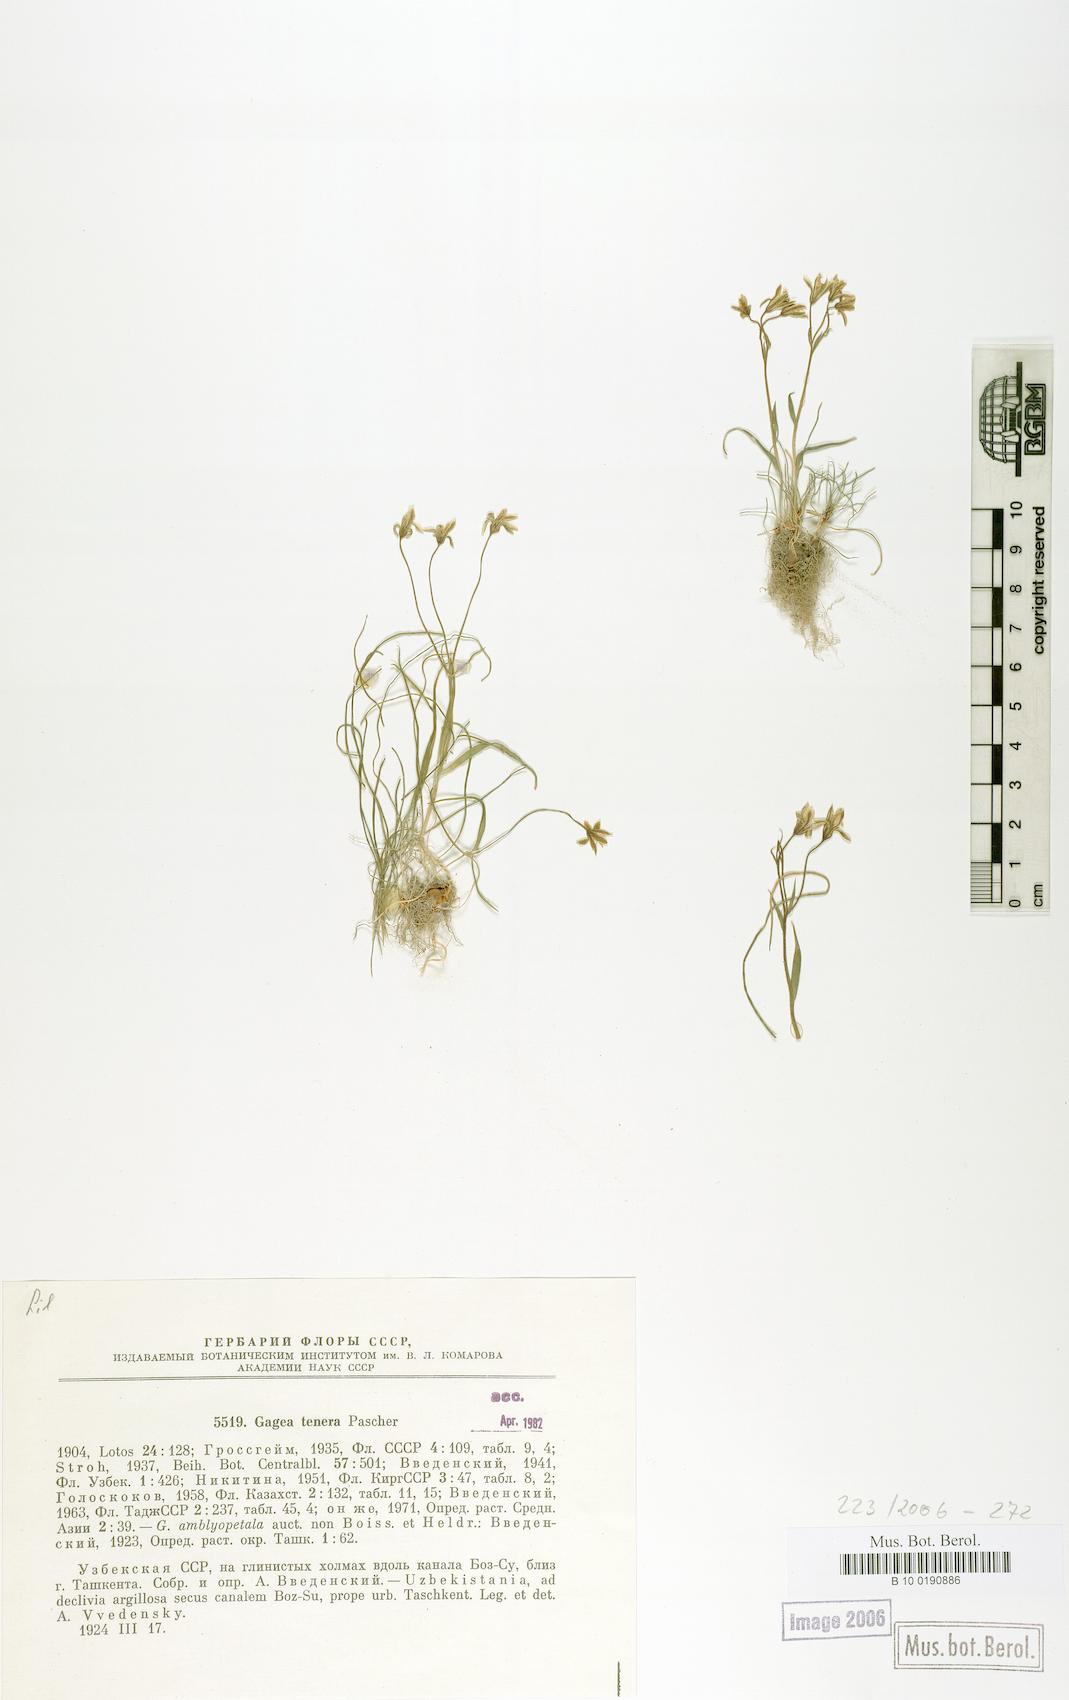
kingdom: Plantae
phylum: Tracheophyta
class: Liliopsida
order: Liliales
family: Liliaceae
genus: Gagea
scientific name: Gagea tenera
